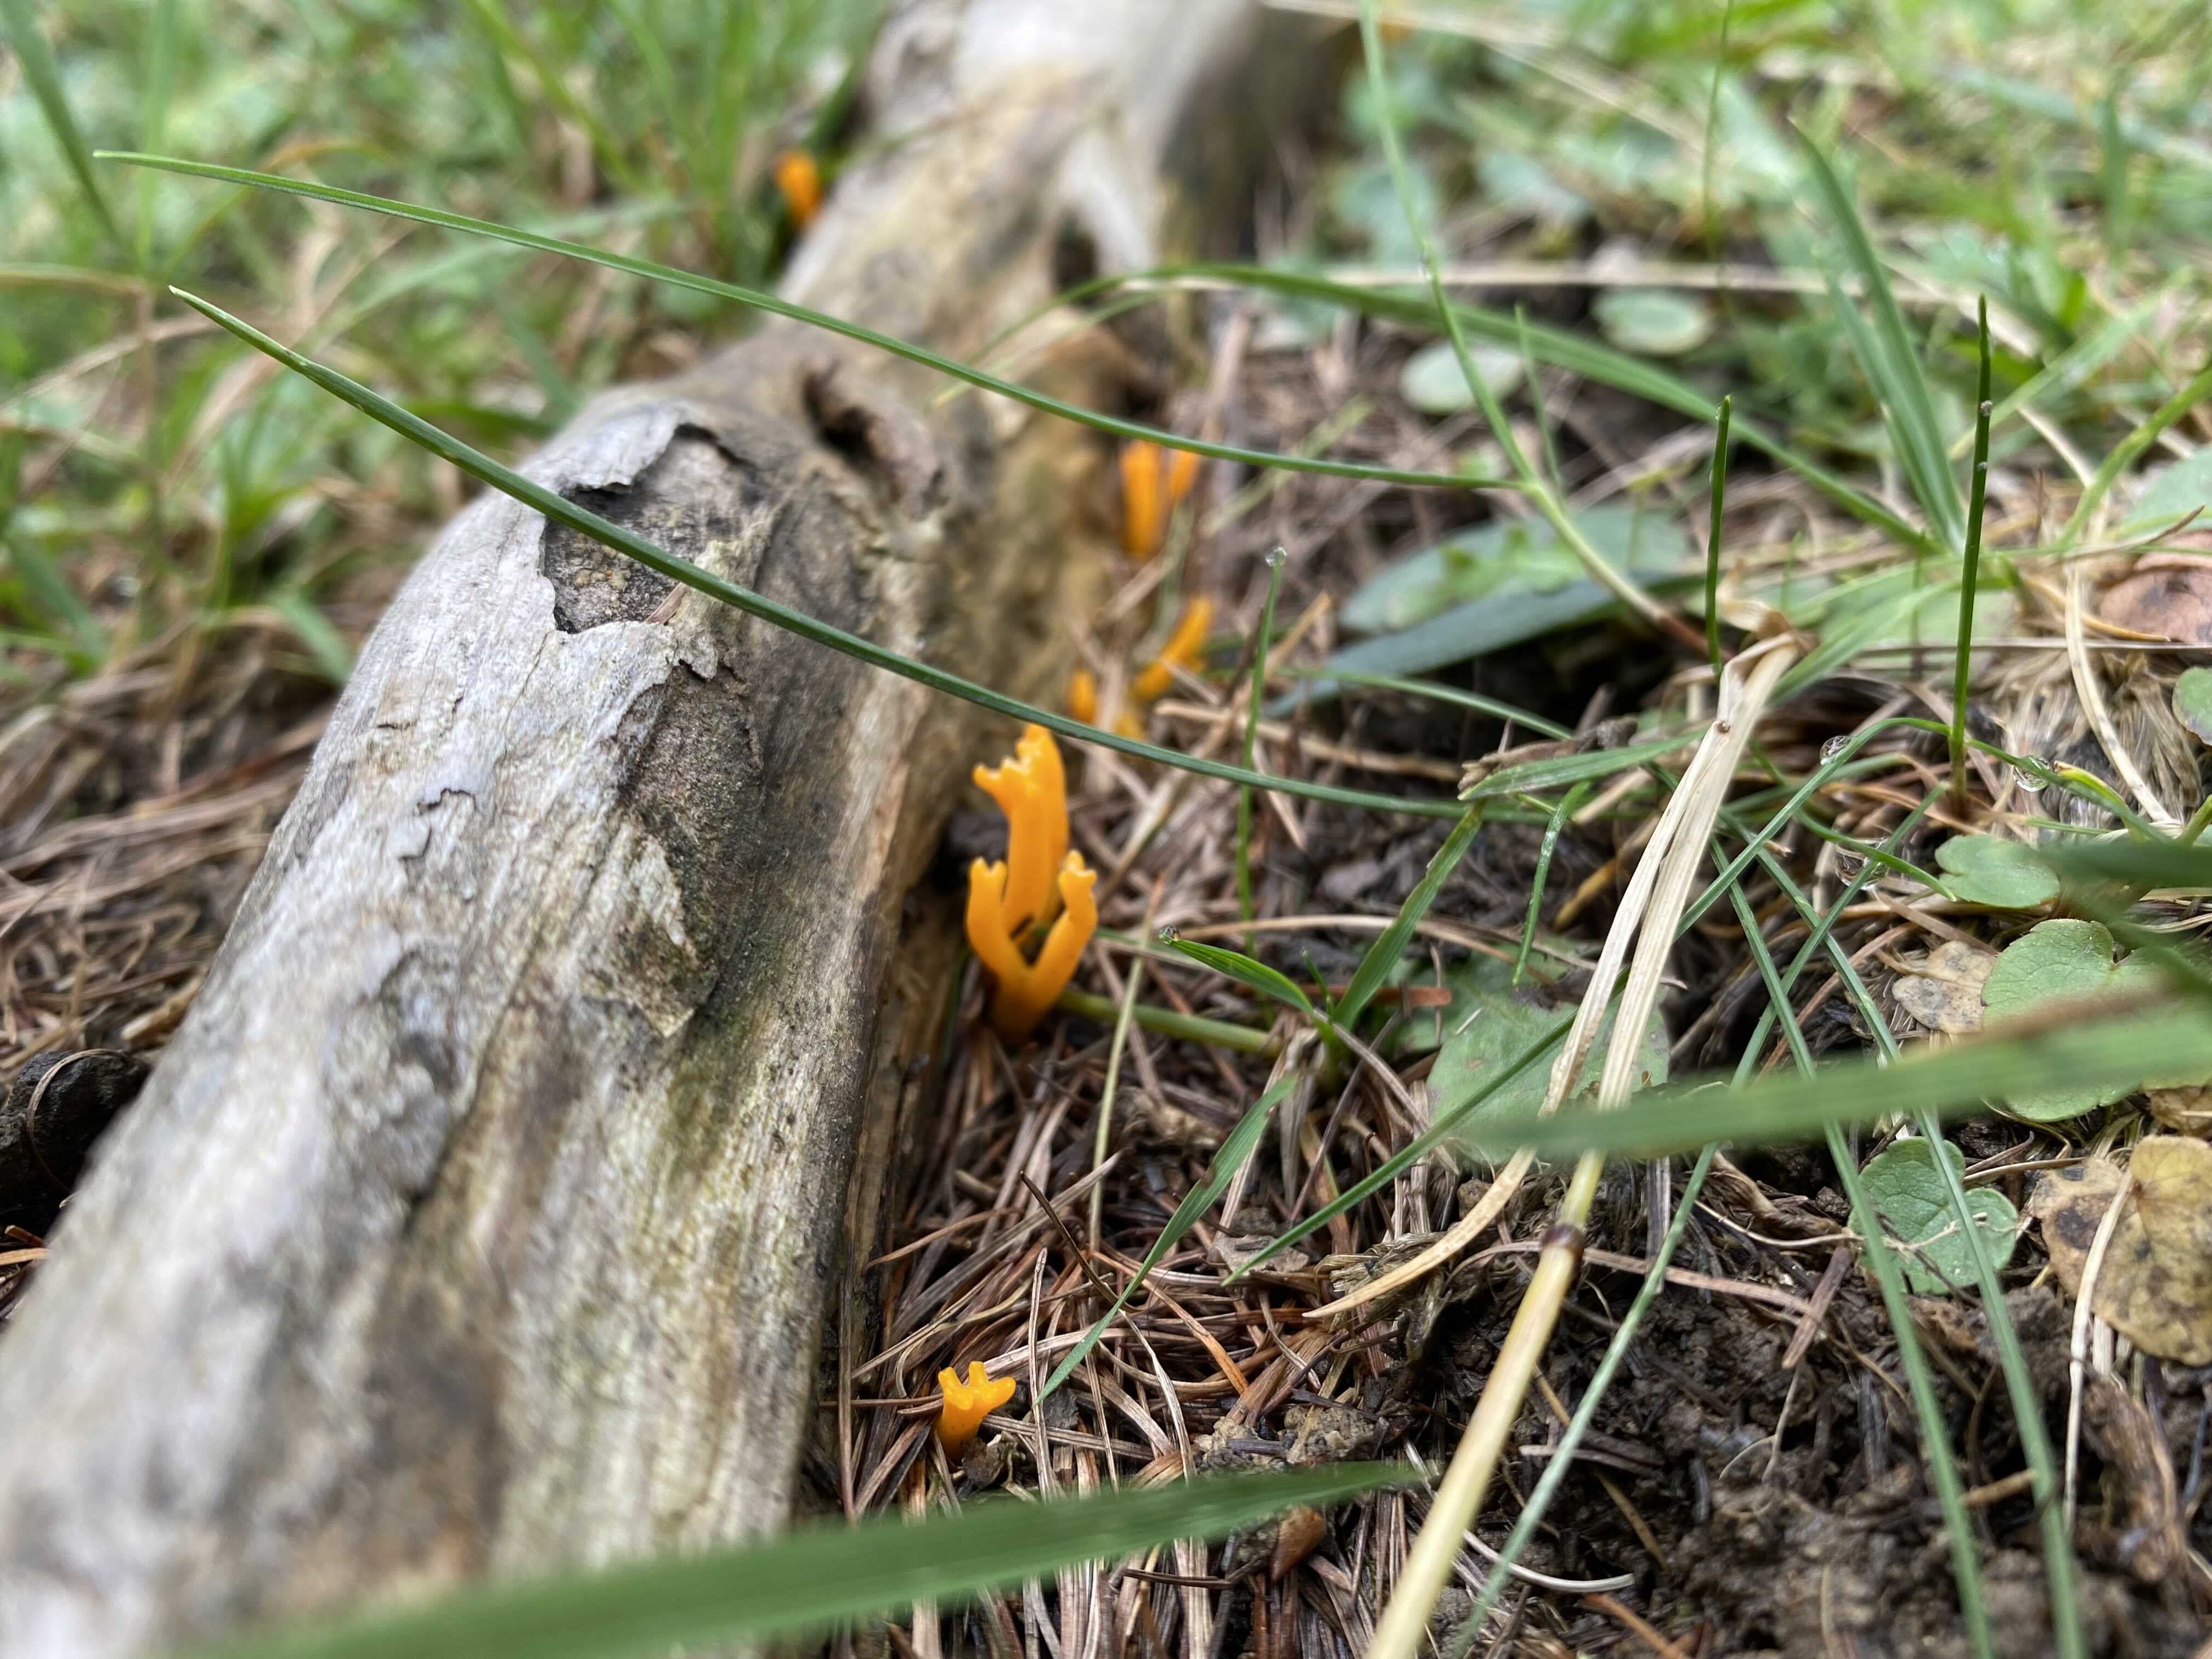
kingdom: Fungi
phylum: Basidiomycota
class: Dacrymycetes
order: Dacrymycetales
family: Dacrymycetaceae
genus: Calocera
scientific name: Calocera viscosa
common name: almindelig guldgaffel
